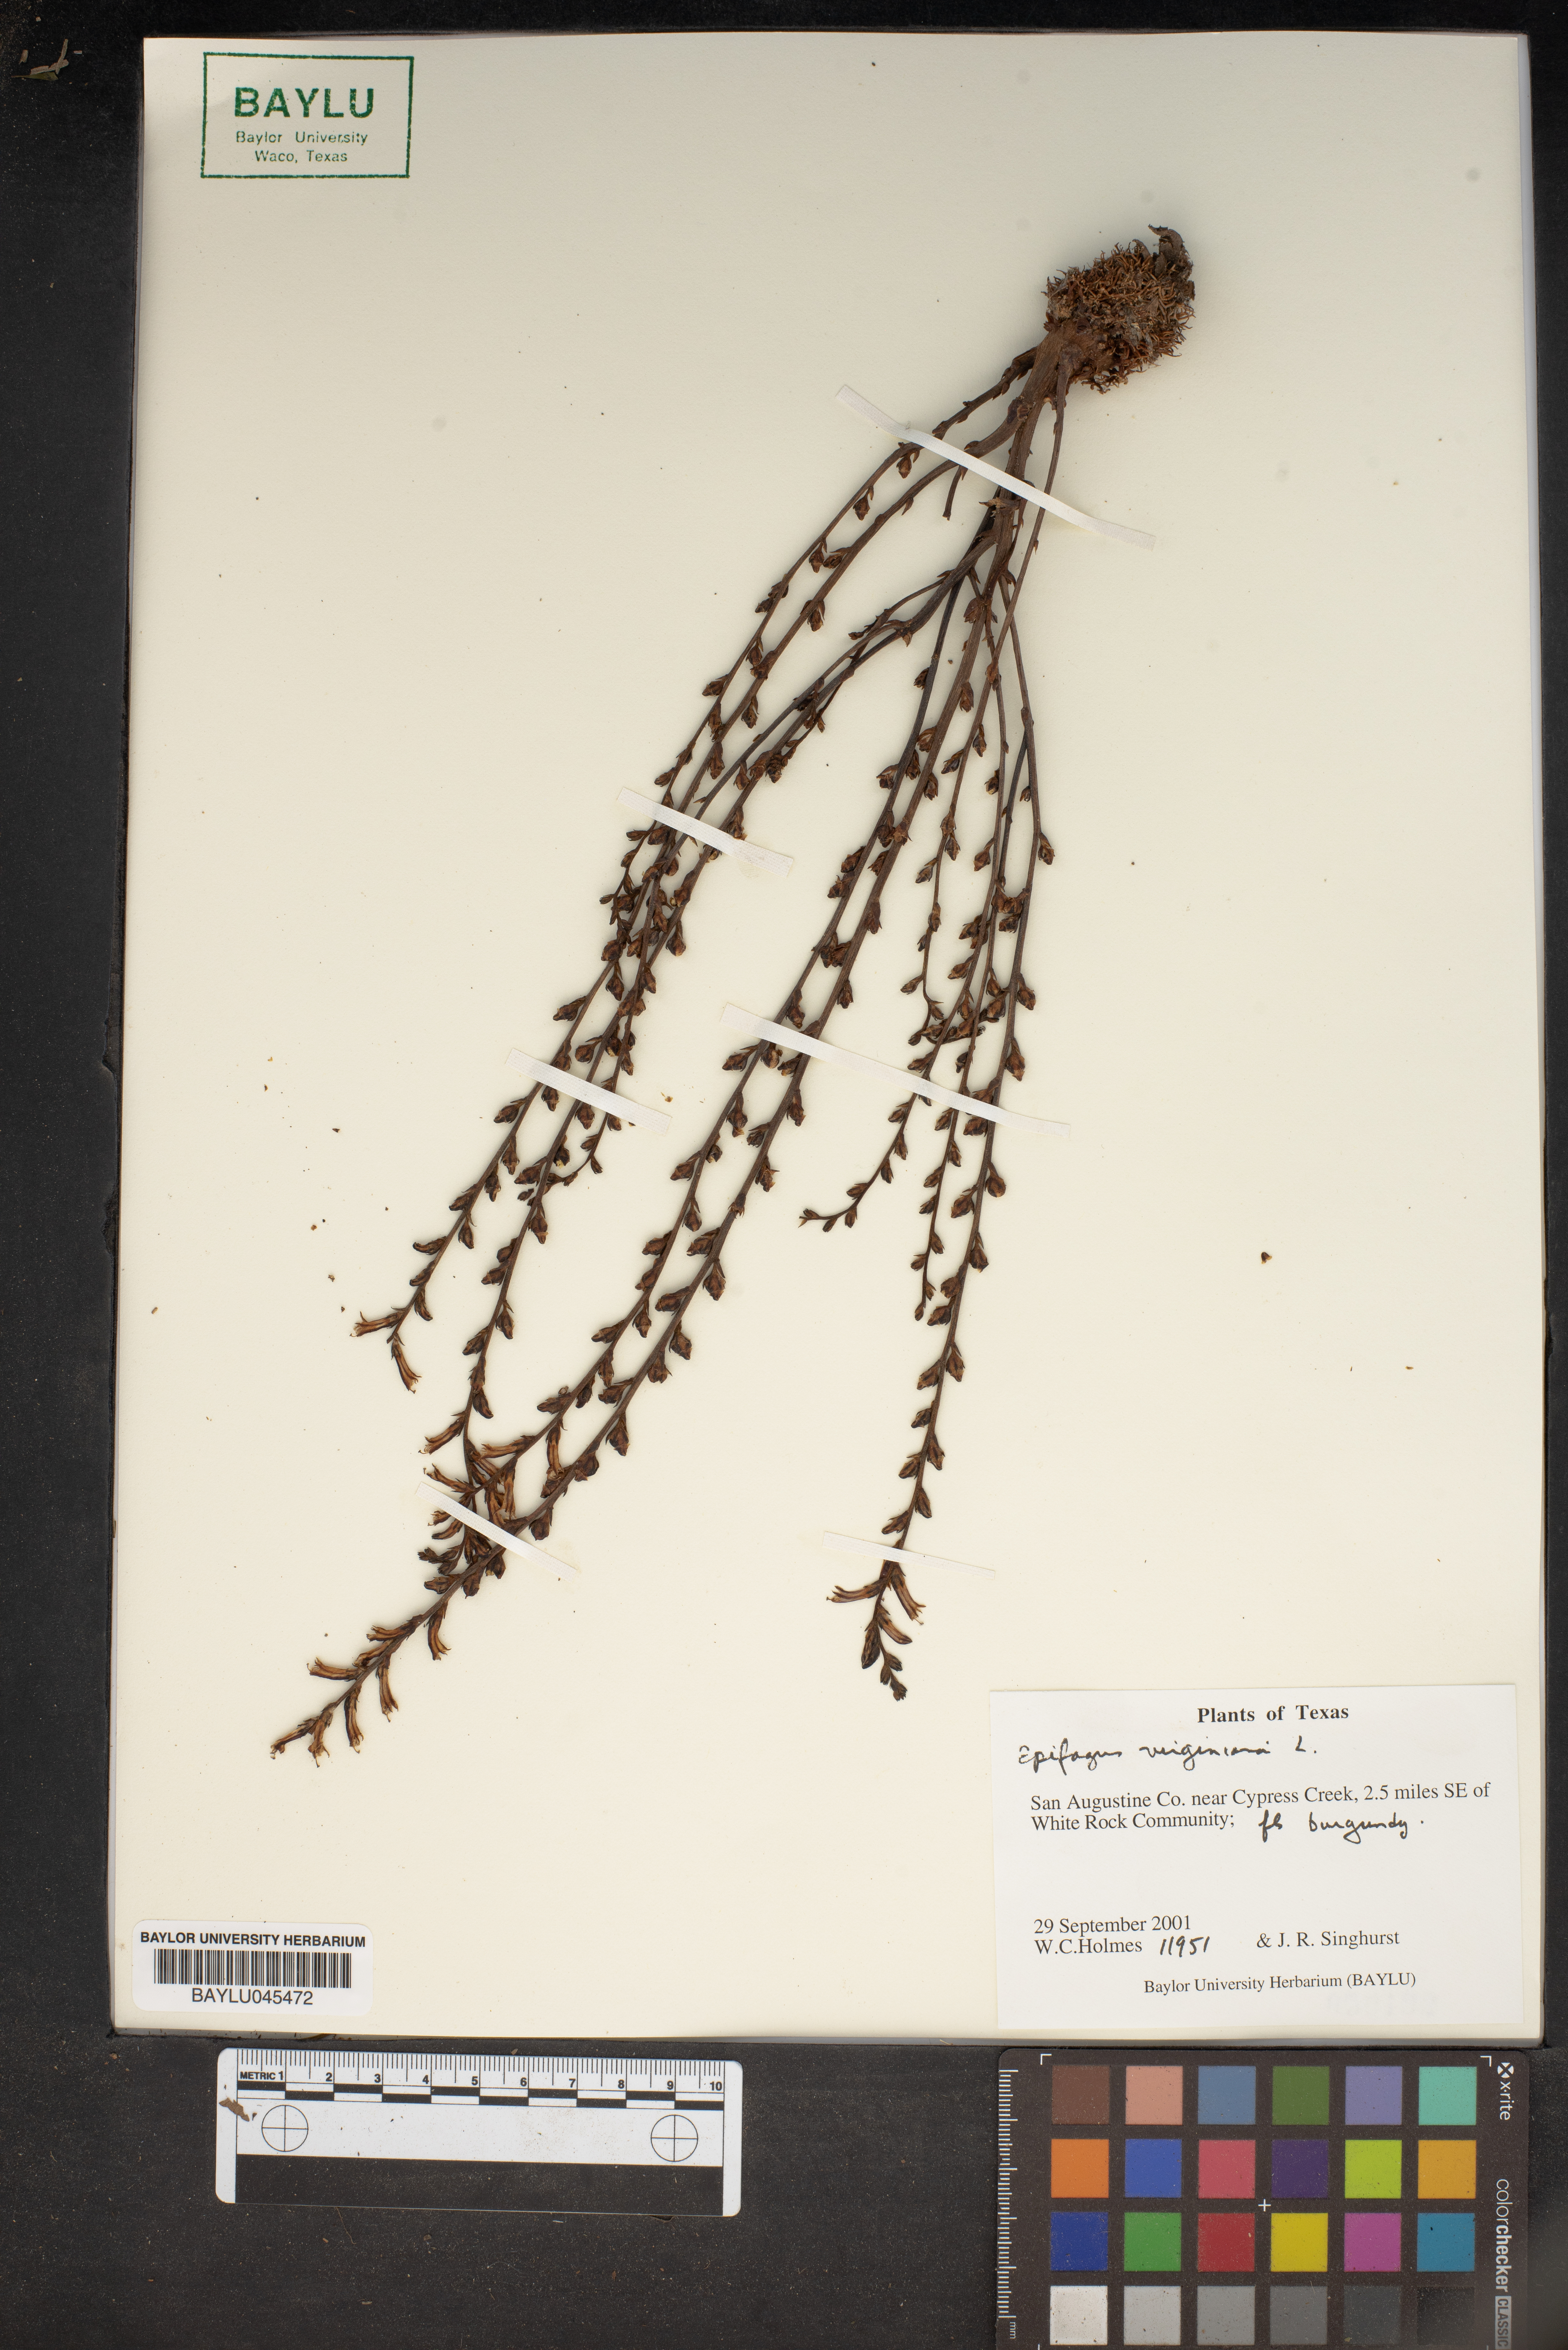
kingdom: Plantae
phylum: Tracheophyta
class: Magnoliopsida
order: Lamiales
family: Orobanchaceae
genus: Epifagus
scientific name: Epifagus virginiana
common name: Beechdrops
